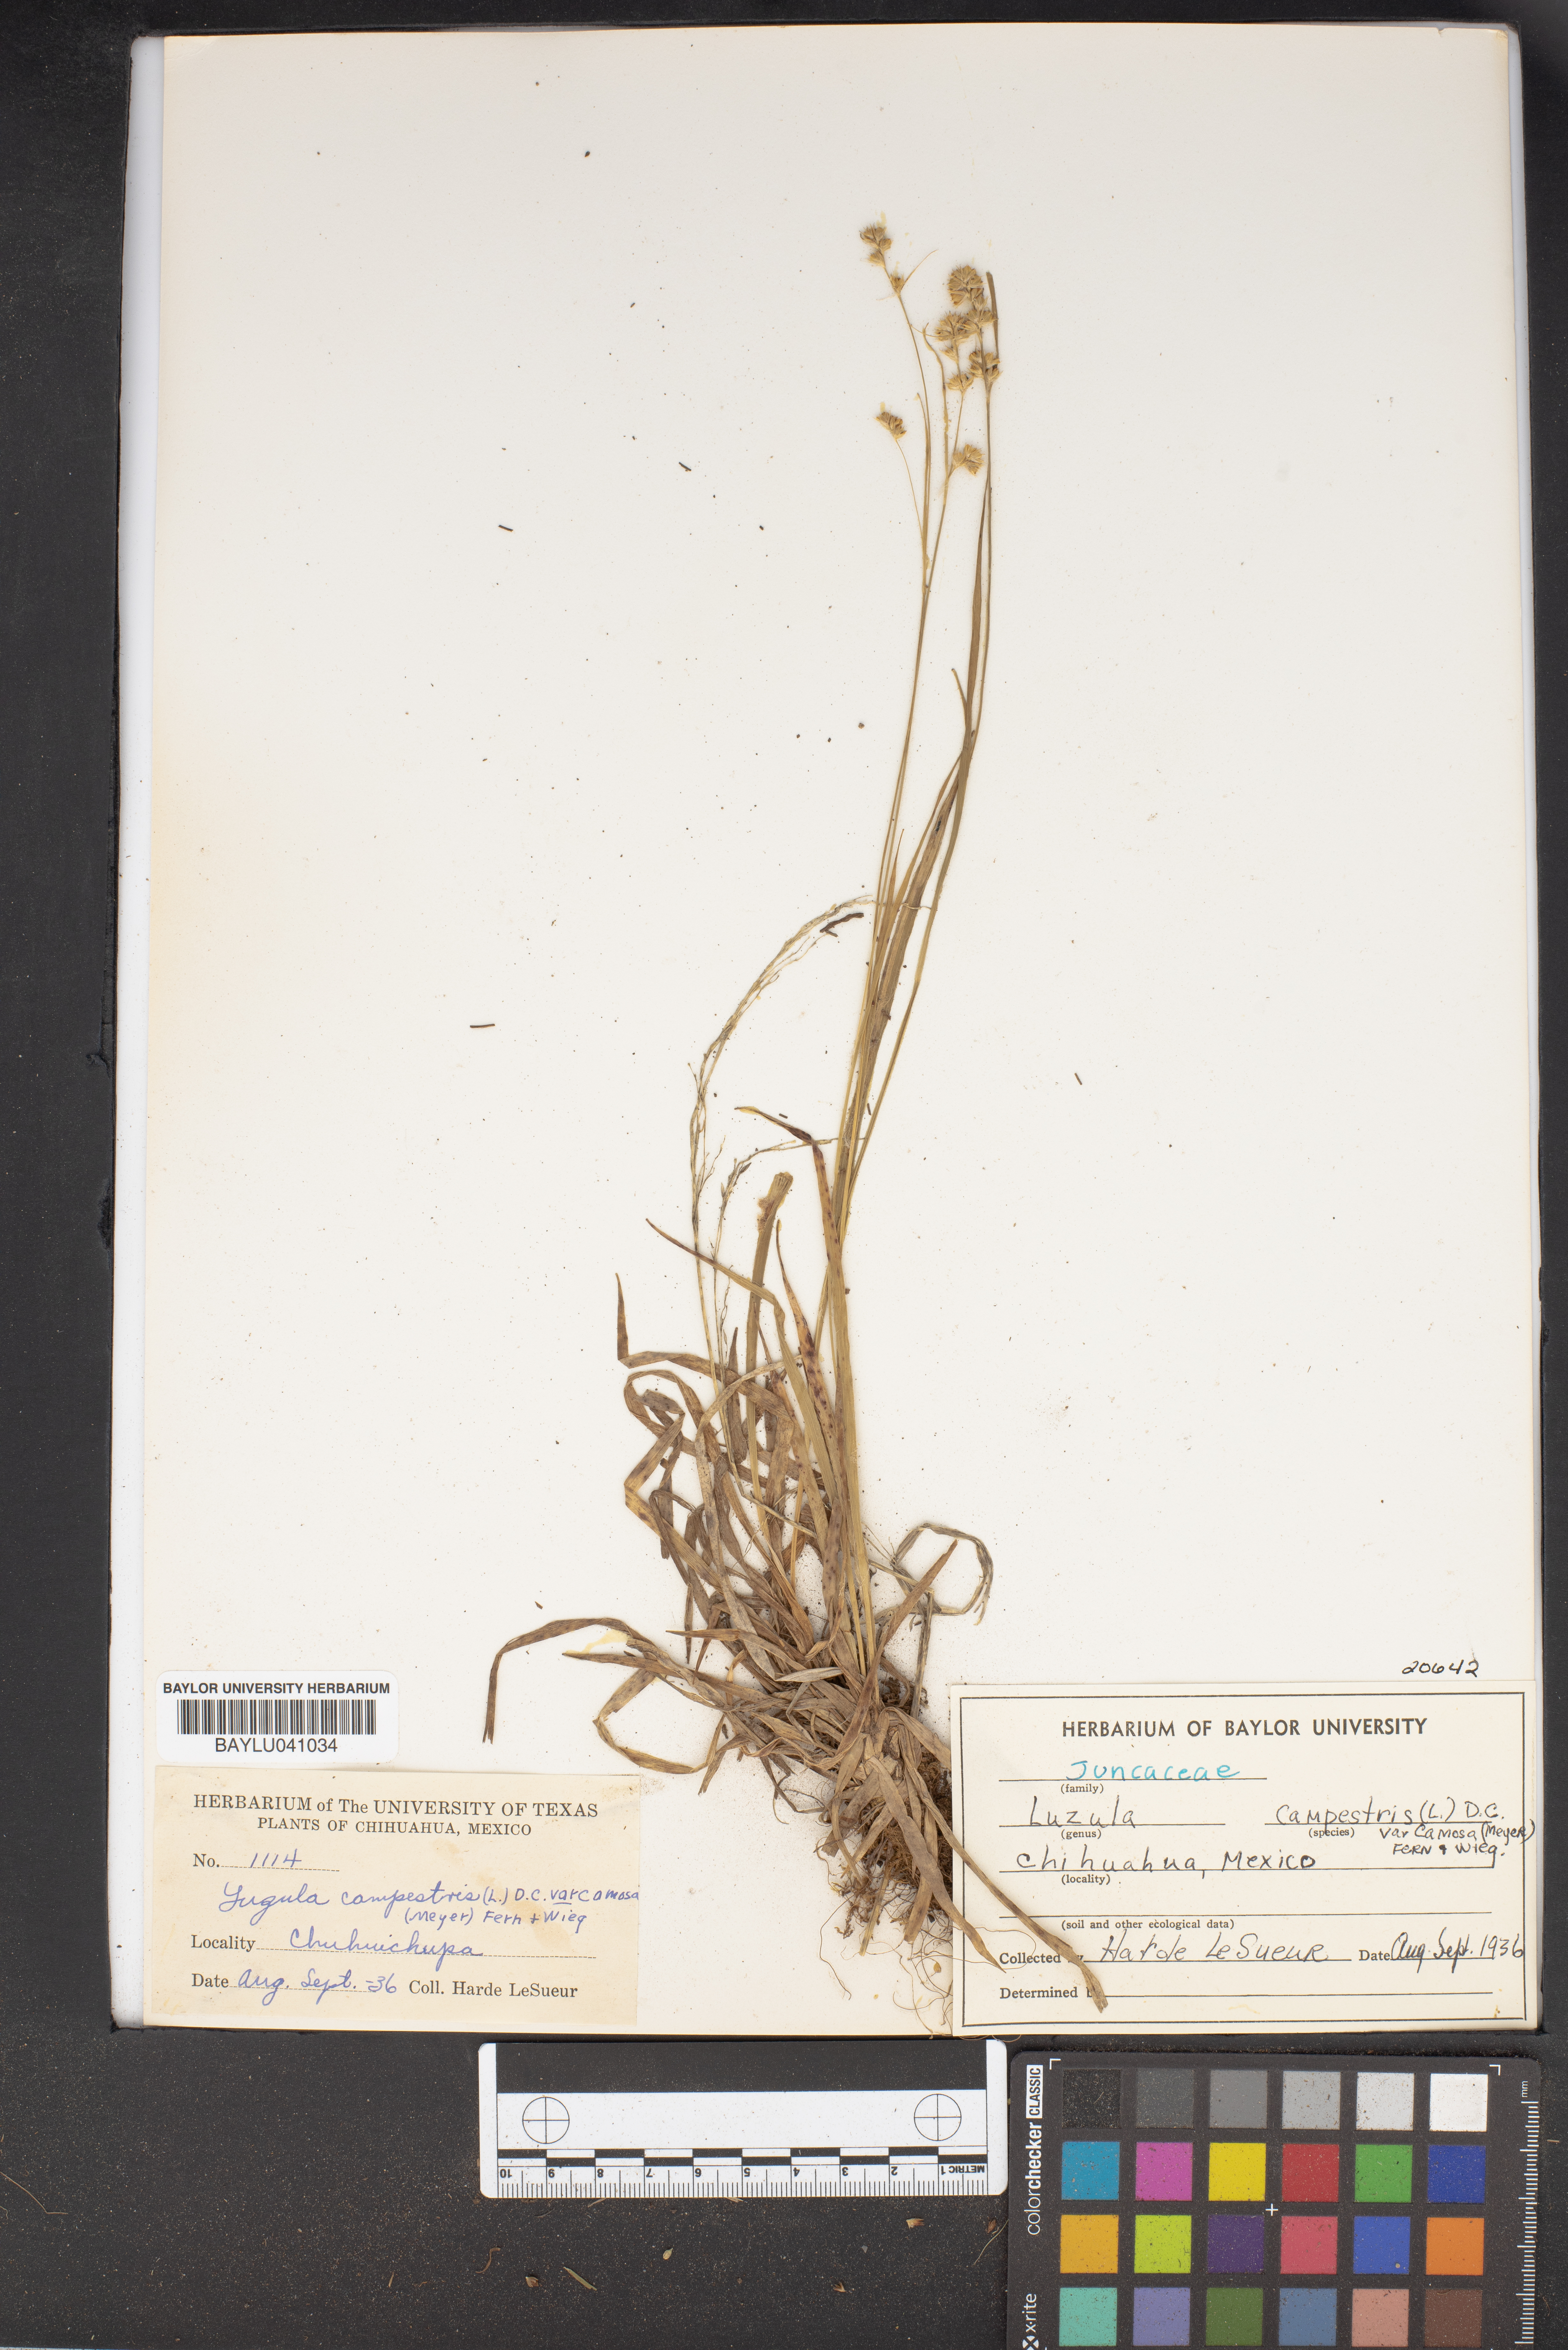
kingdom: Plantae
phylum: Tracheophyta
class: Liliopsida
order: Poales
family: Juncaceae
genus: Luzula
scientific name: Luzula campestris
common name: Field wood-rush
